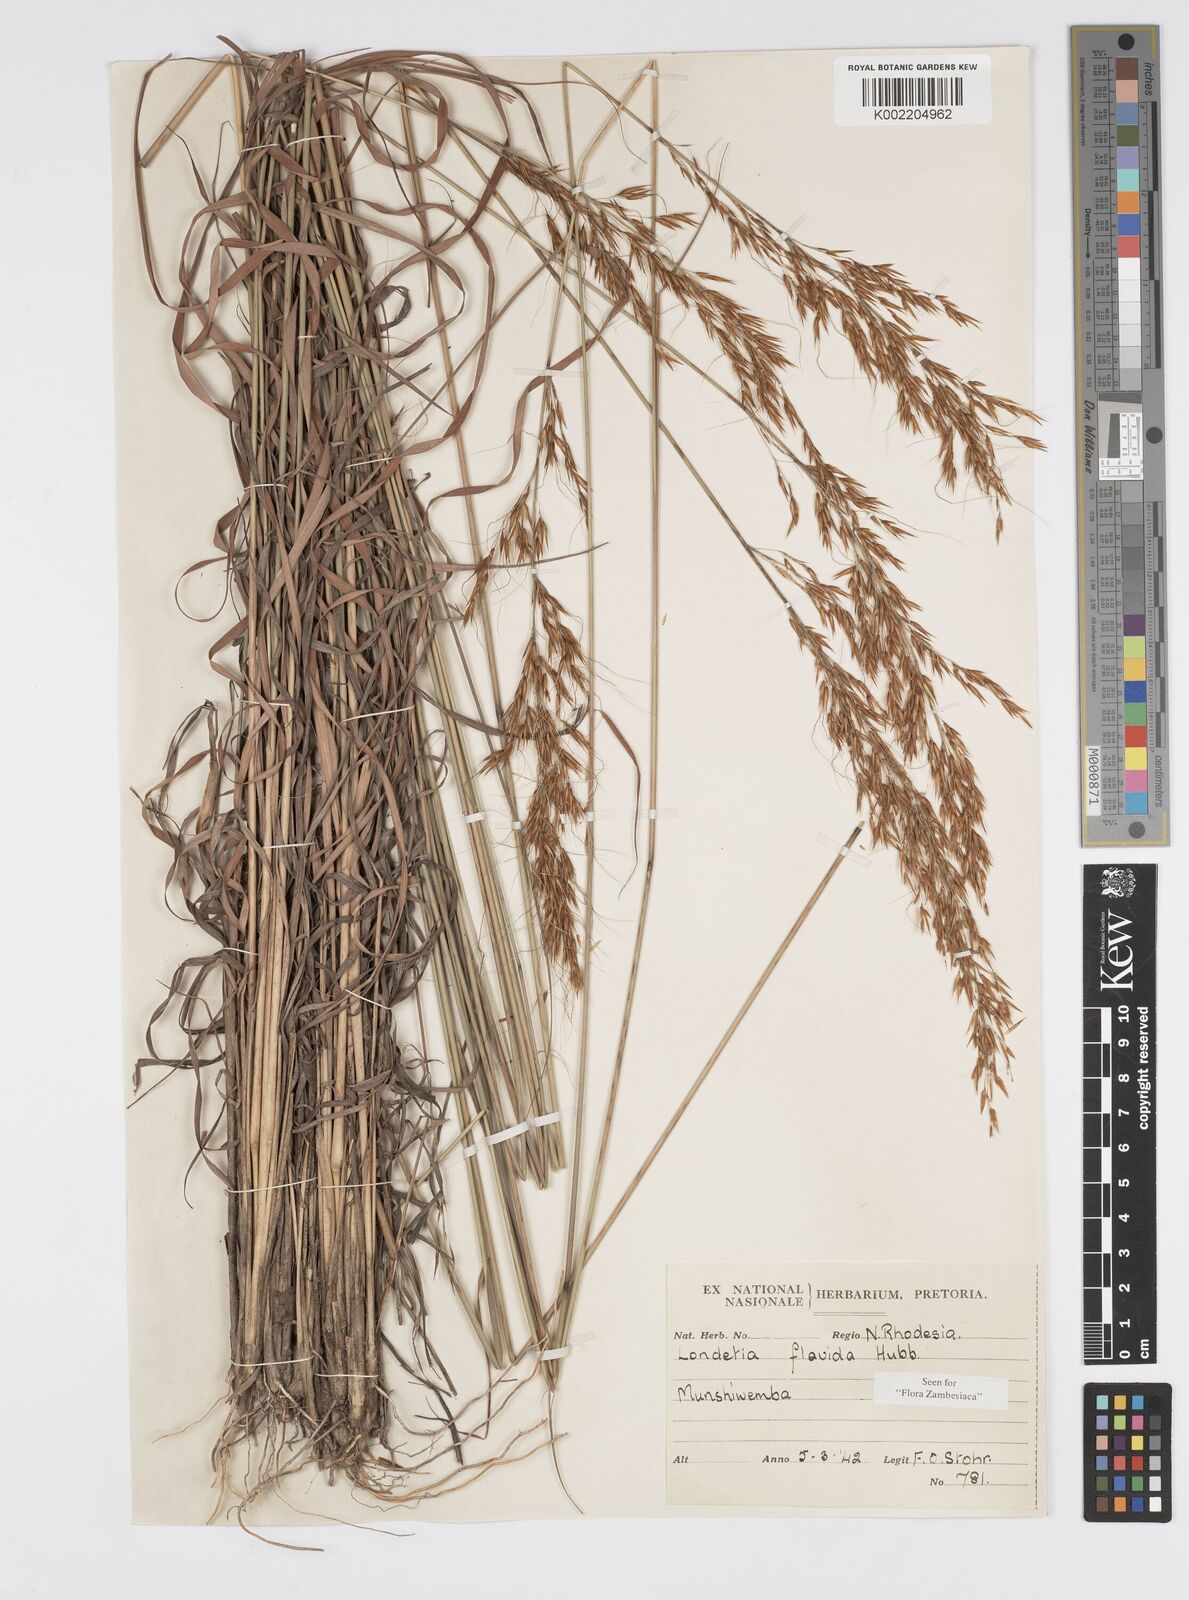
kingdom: Plantae
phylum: Tracheophyta
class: Liliopsida
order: Poales
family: Poaceae
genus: Loudetia
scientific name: Loudetia flavida
